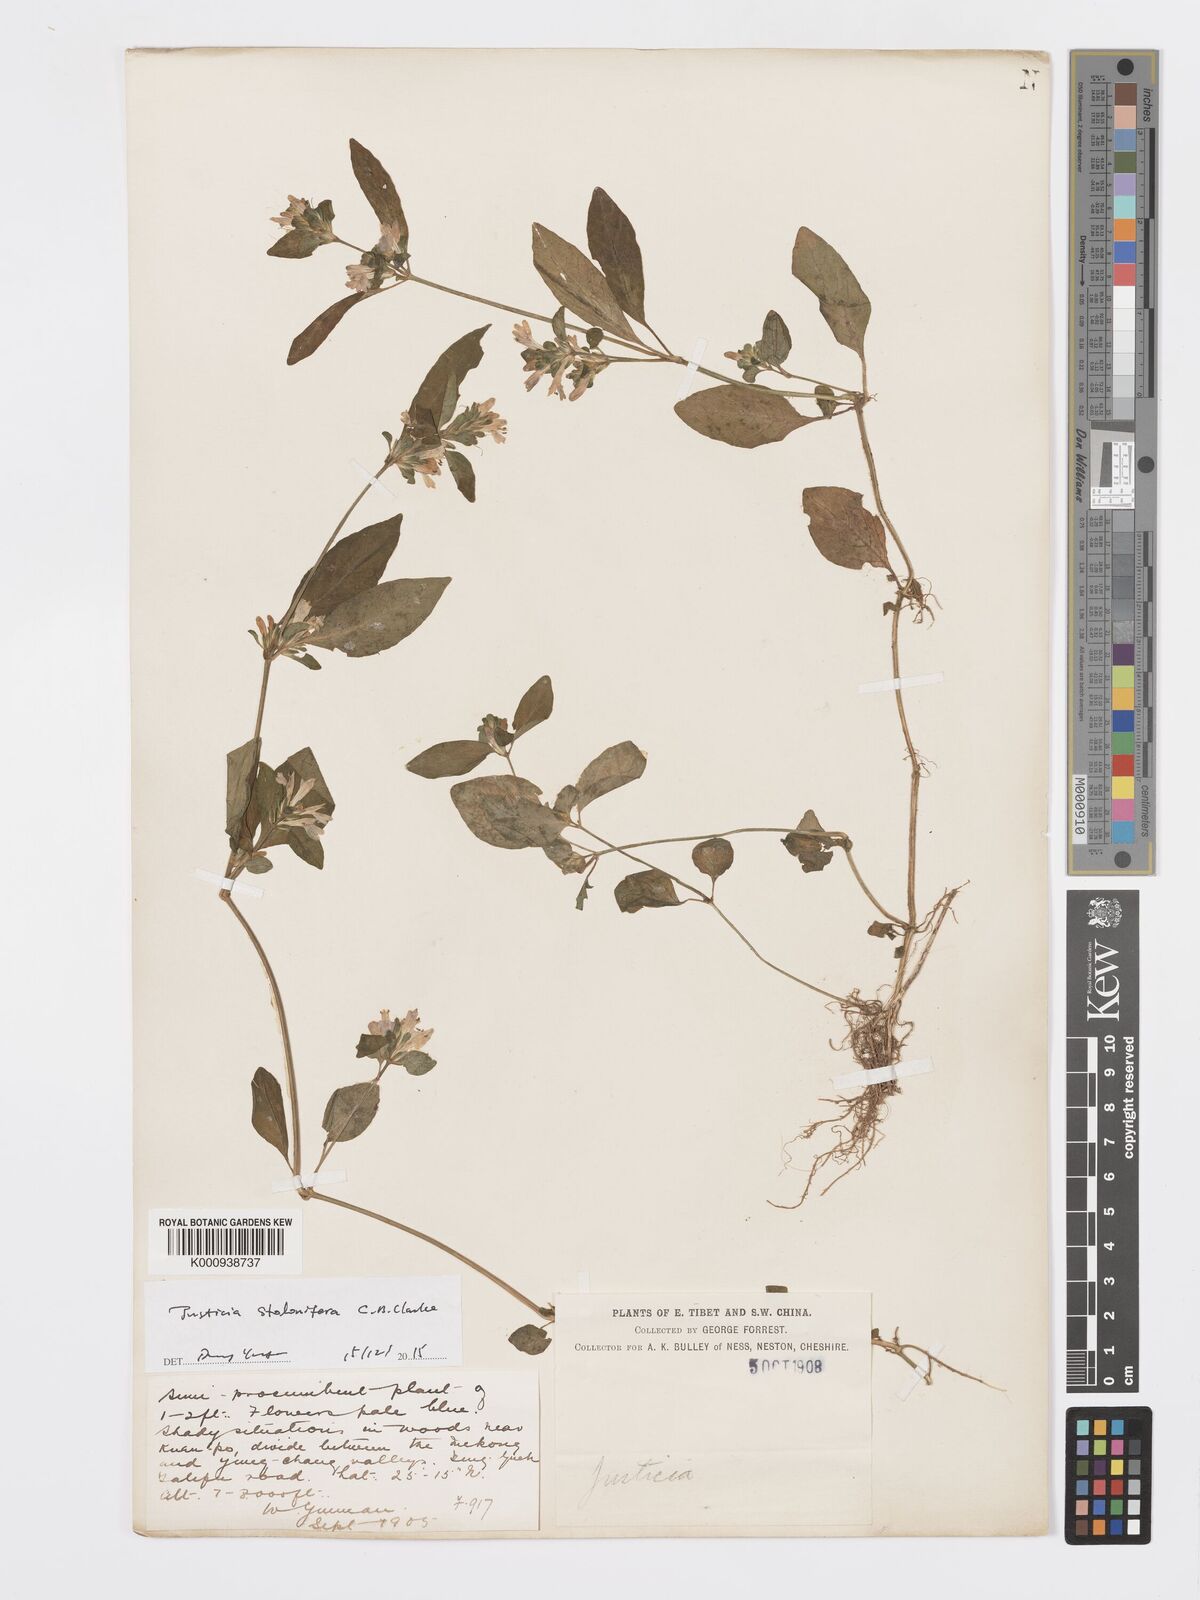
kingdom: Plantae
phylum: Tracheophyta
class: Magnoliopsida
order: Lamiales
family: Acanthaceae
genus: Rungia
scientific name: Rungia stolonifera
